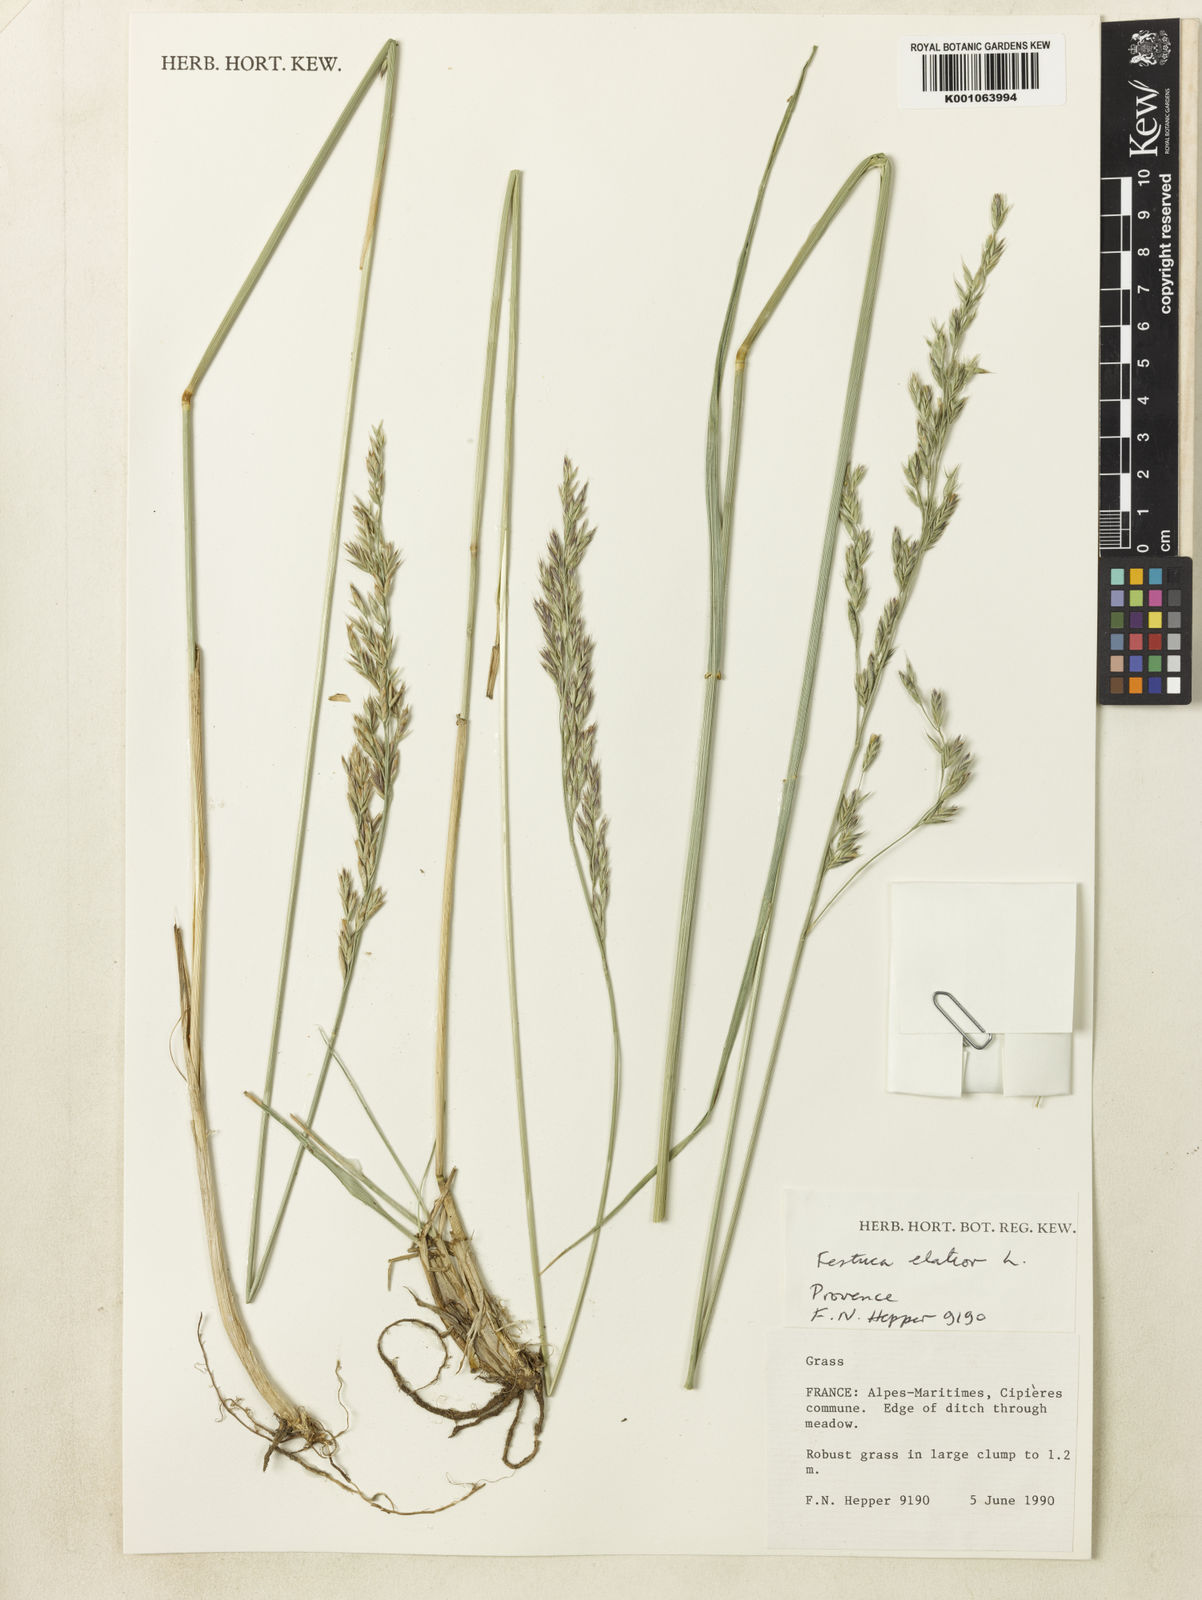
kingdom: Plantae
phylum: Tracheophyta
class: Liliopsida
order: Poales
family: Poaceae
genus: Lolium
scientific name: Lolium arundinaceum
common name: Reed fescue
